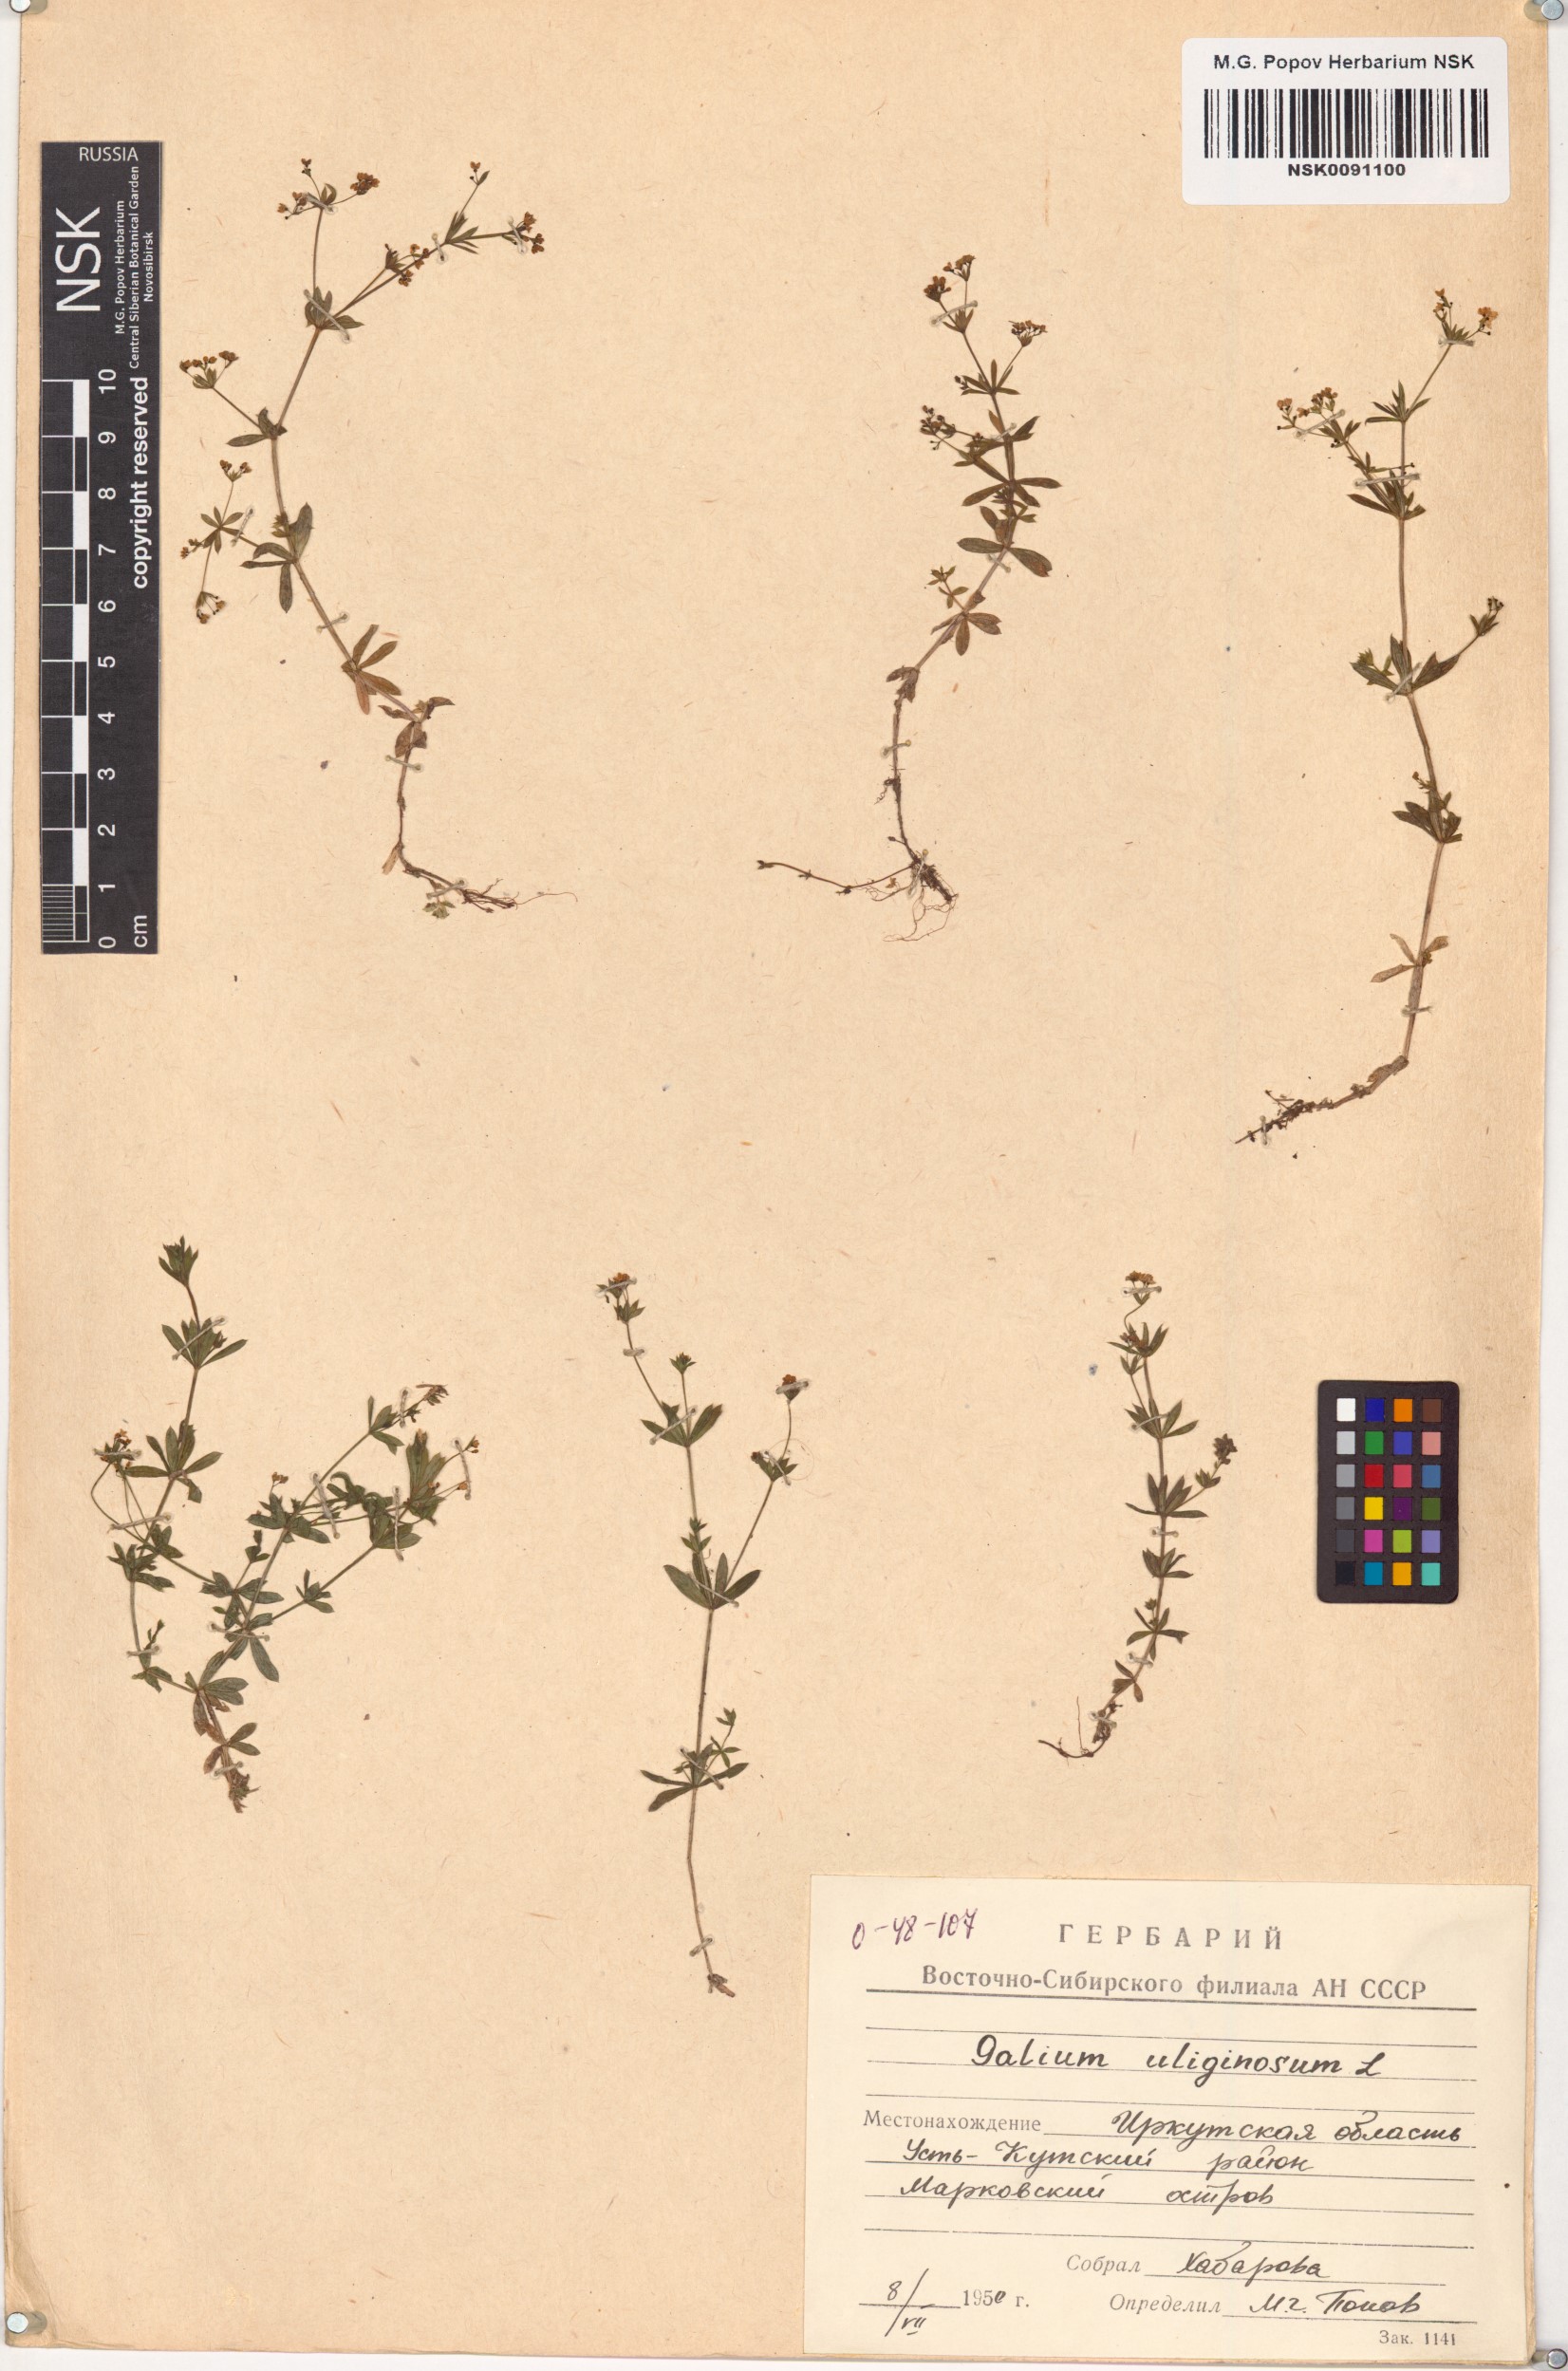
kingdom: Plantae
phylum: Tracheophyta
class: Magnoliopsida
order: Gentianales
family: Rubiaceae
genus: Galium
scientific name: Galium uliginosum
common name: Fen bedstraw
